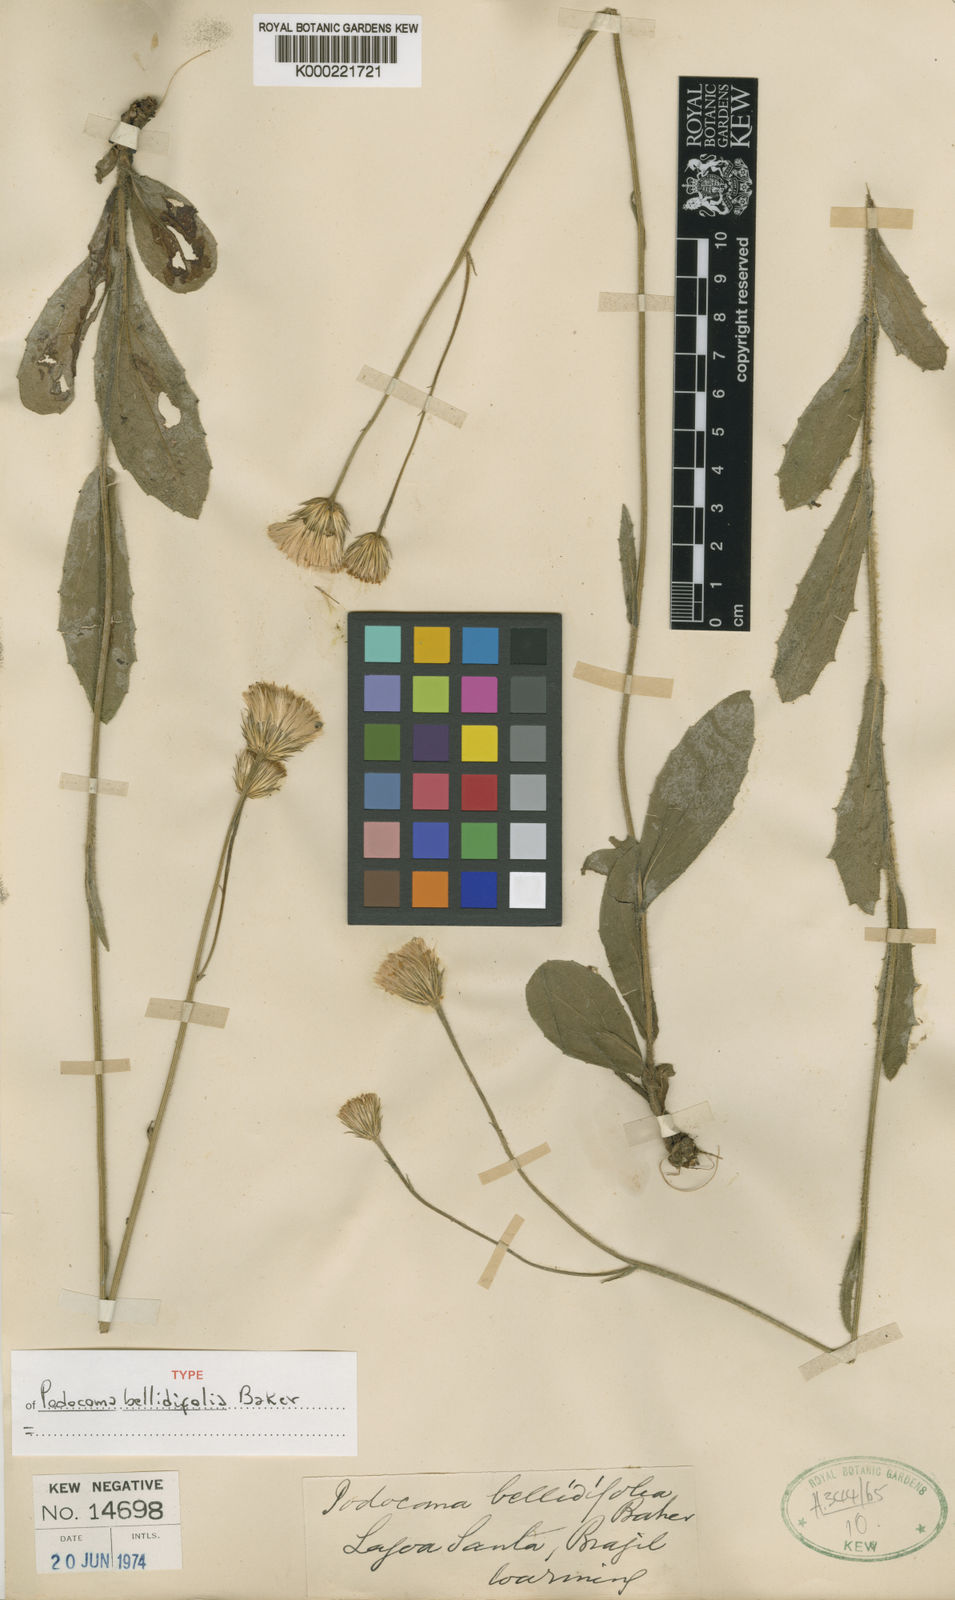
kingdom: Plantae
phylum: Tracheophyta
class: Magnoliopsida
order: Asterales
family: Asteraceae
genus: Podocoma
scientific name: Podocoma bellidifolia
